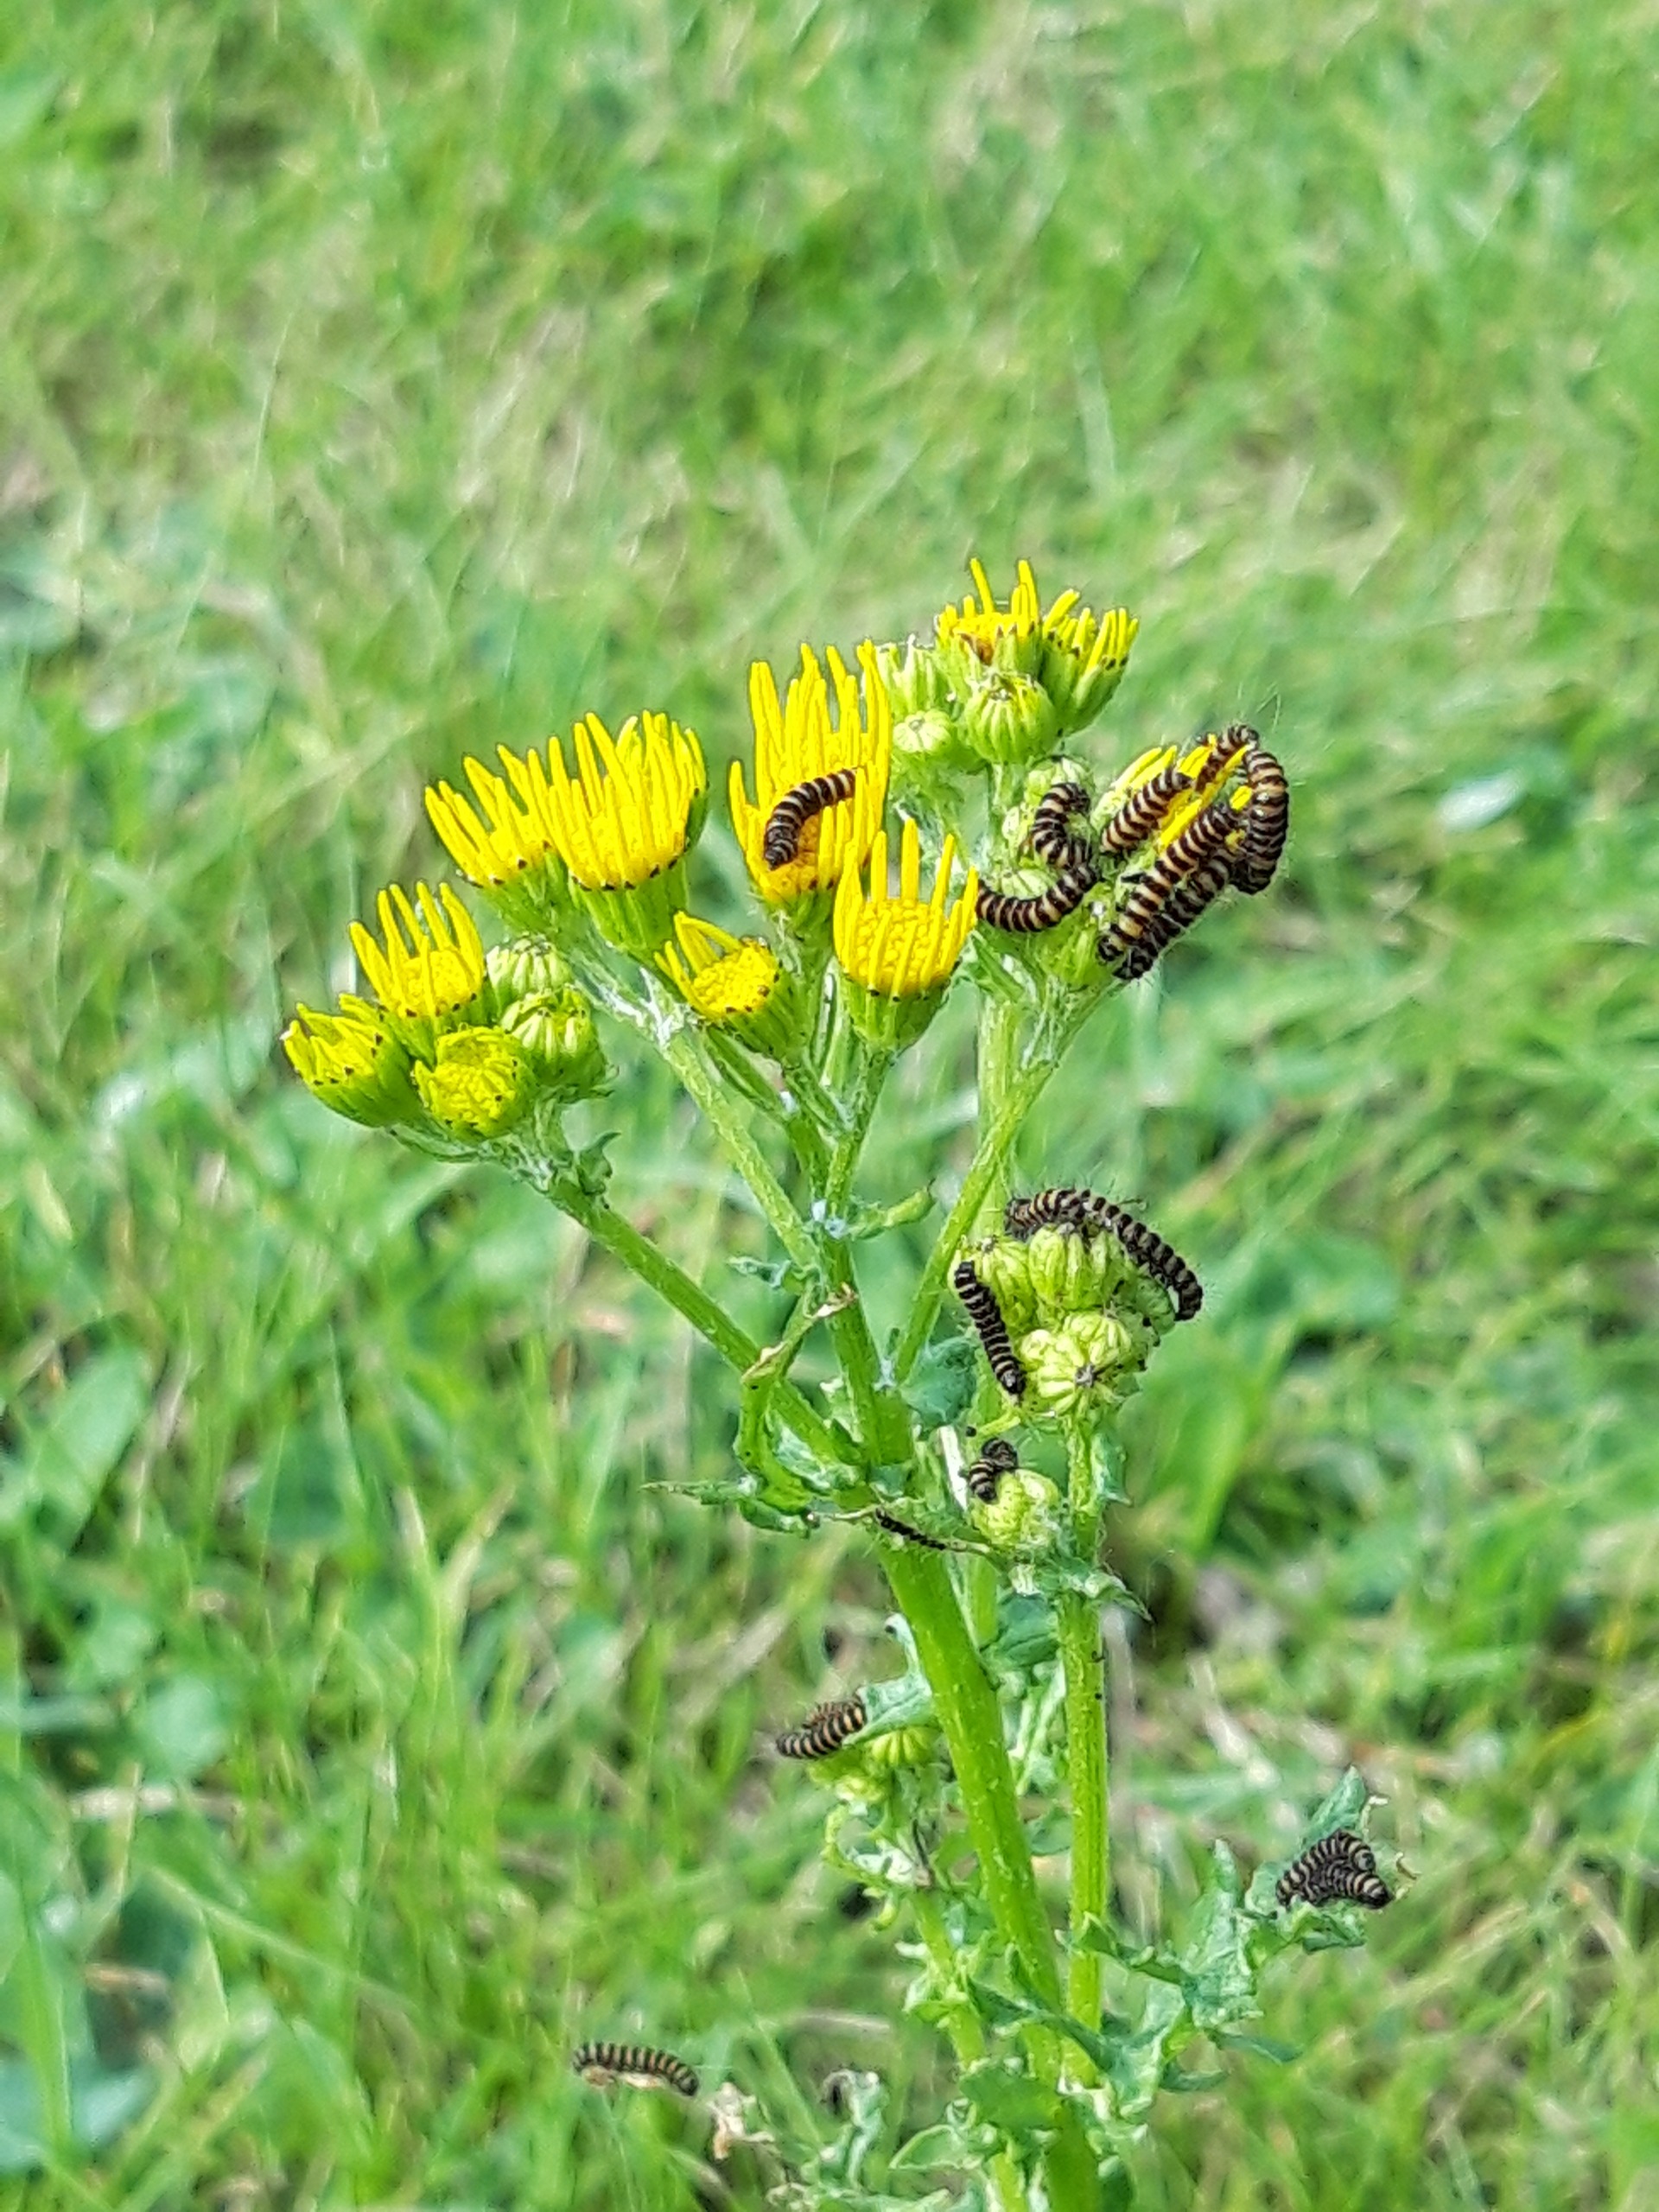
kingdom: Animalia
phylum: Arthropoda
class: Insecta
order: Lepidoptera
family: Erebidae
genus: Tyria
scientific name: Tyria jacobaeae
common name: Blodplet
